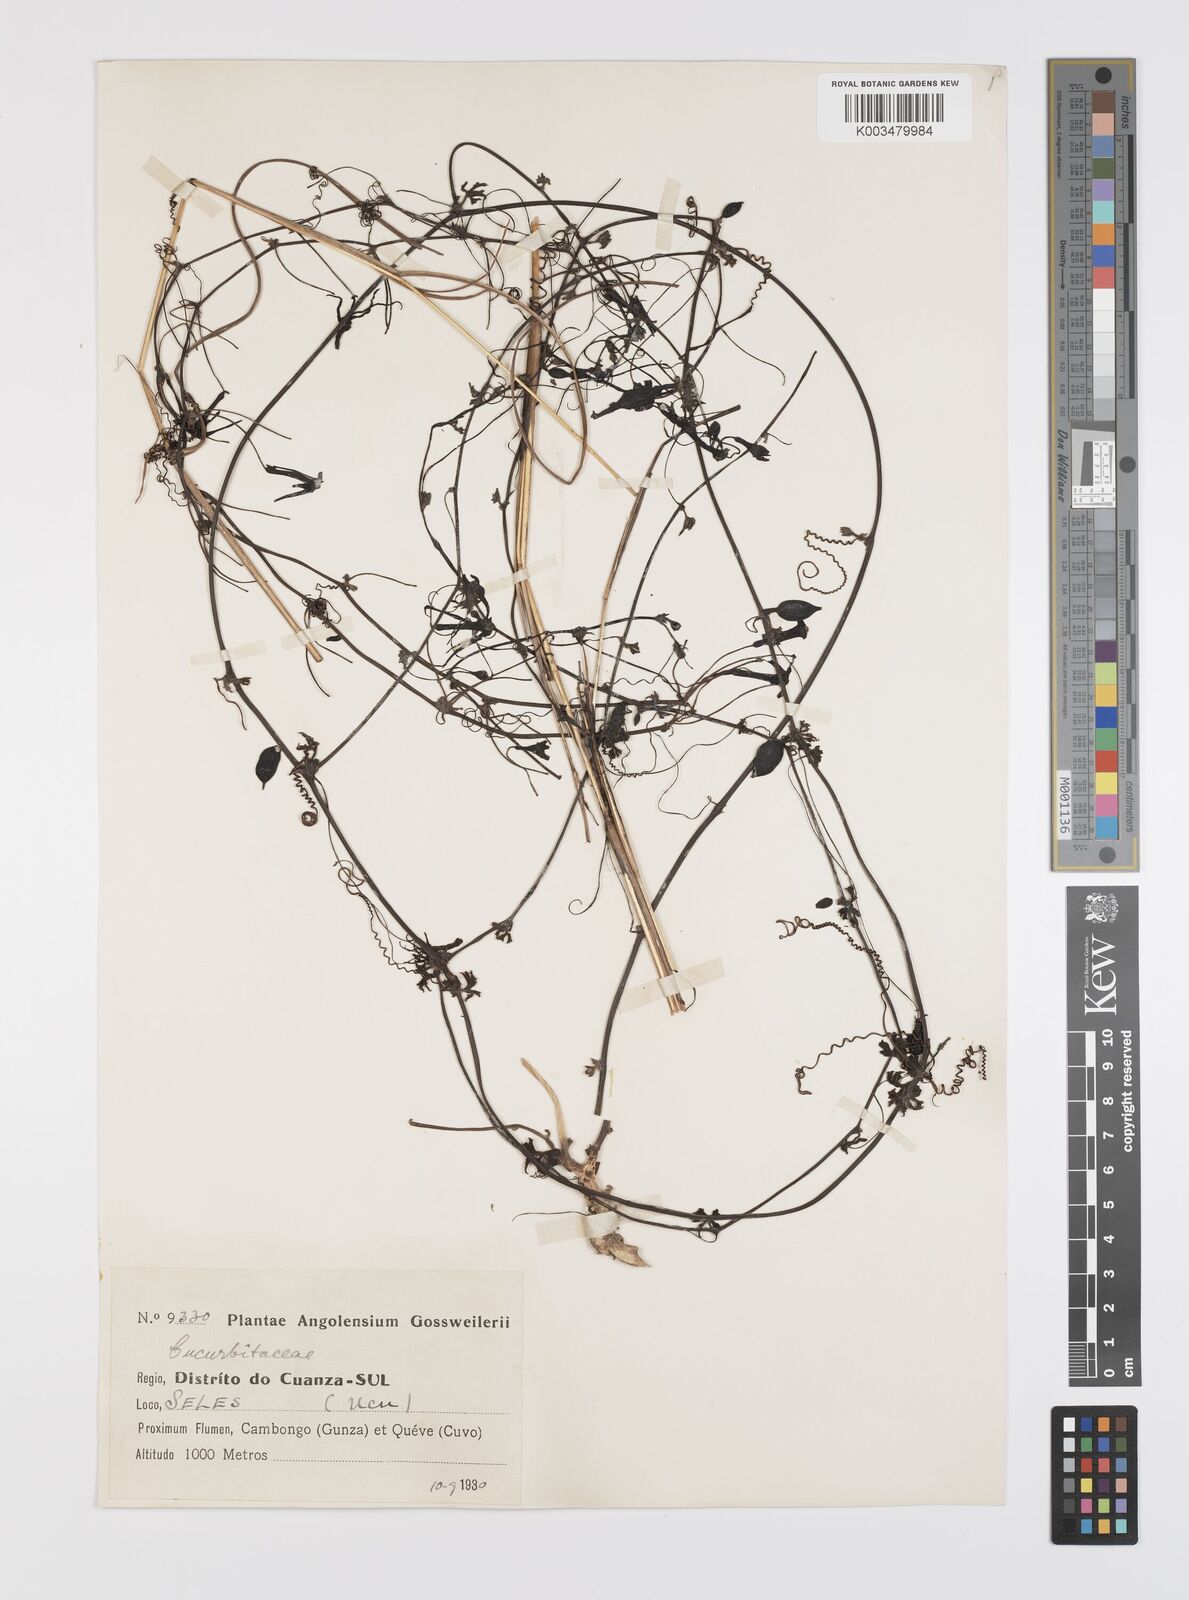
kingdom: Plantae
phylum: Tracheophyta
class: Magnoliopsida
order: Cucurbitales
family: Cucurbitaceae
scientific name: Cucurbitaceae
